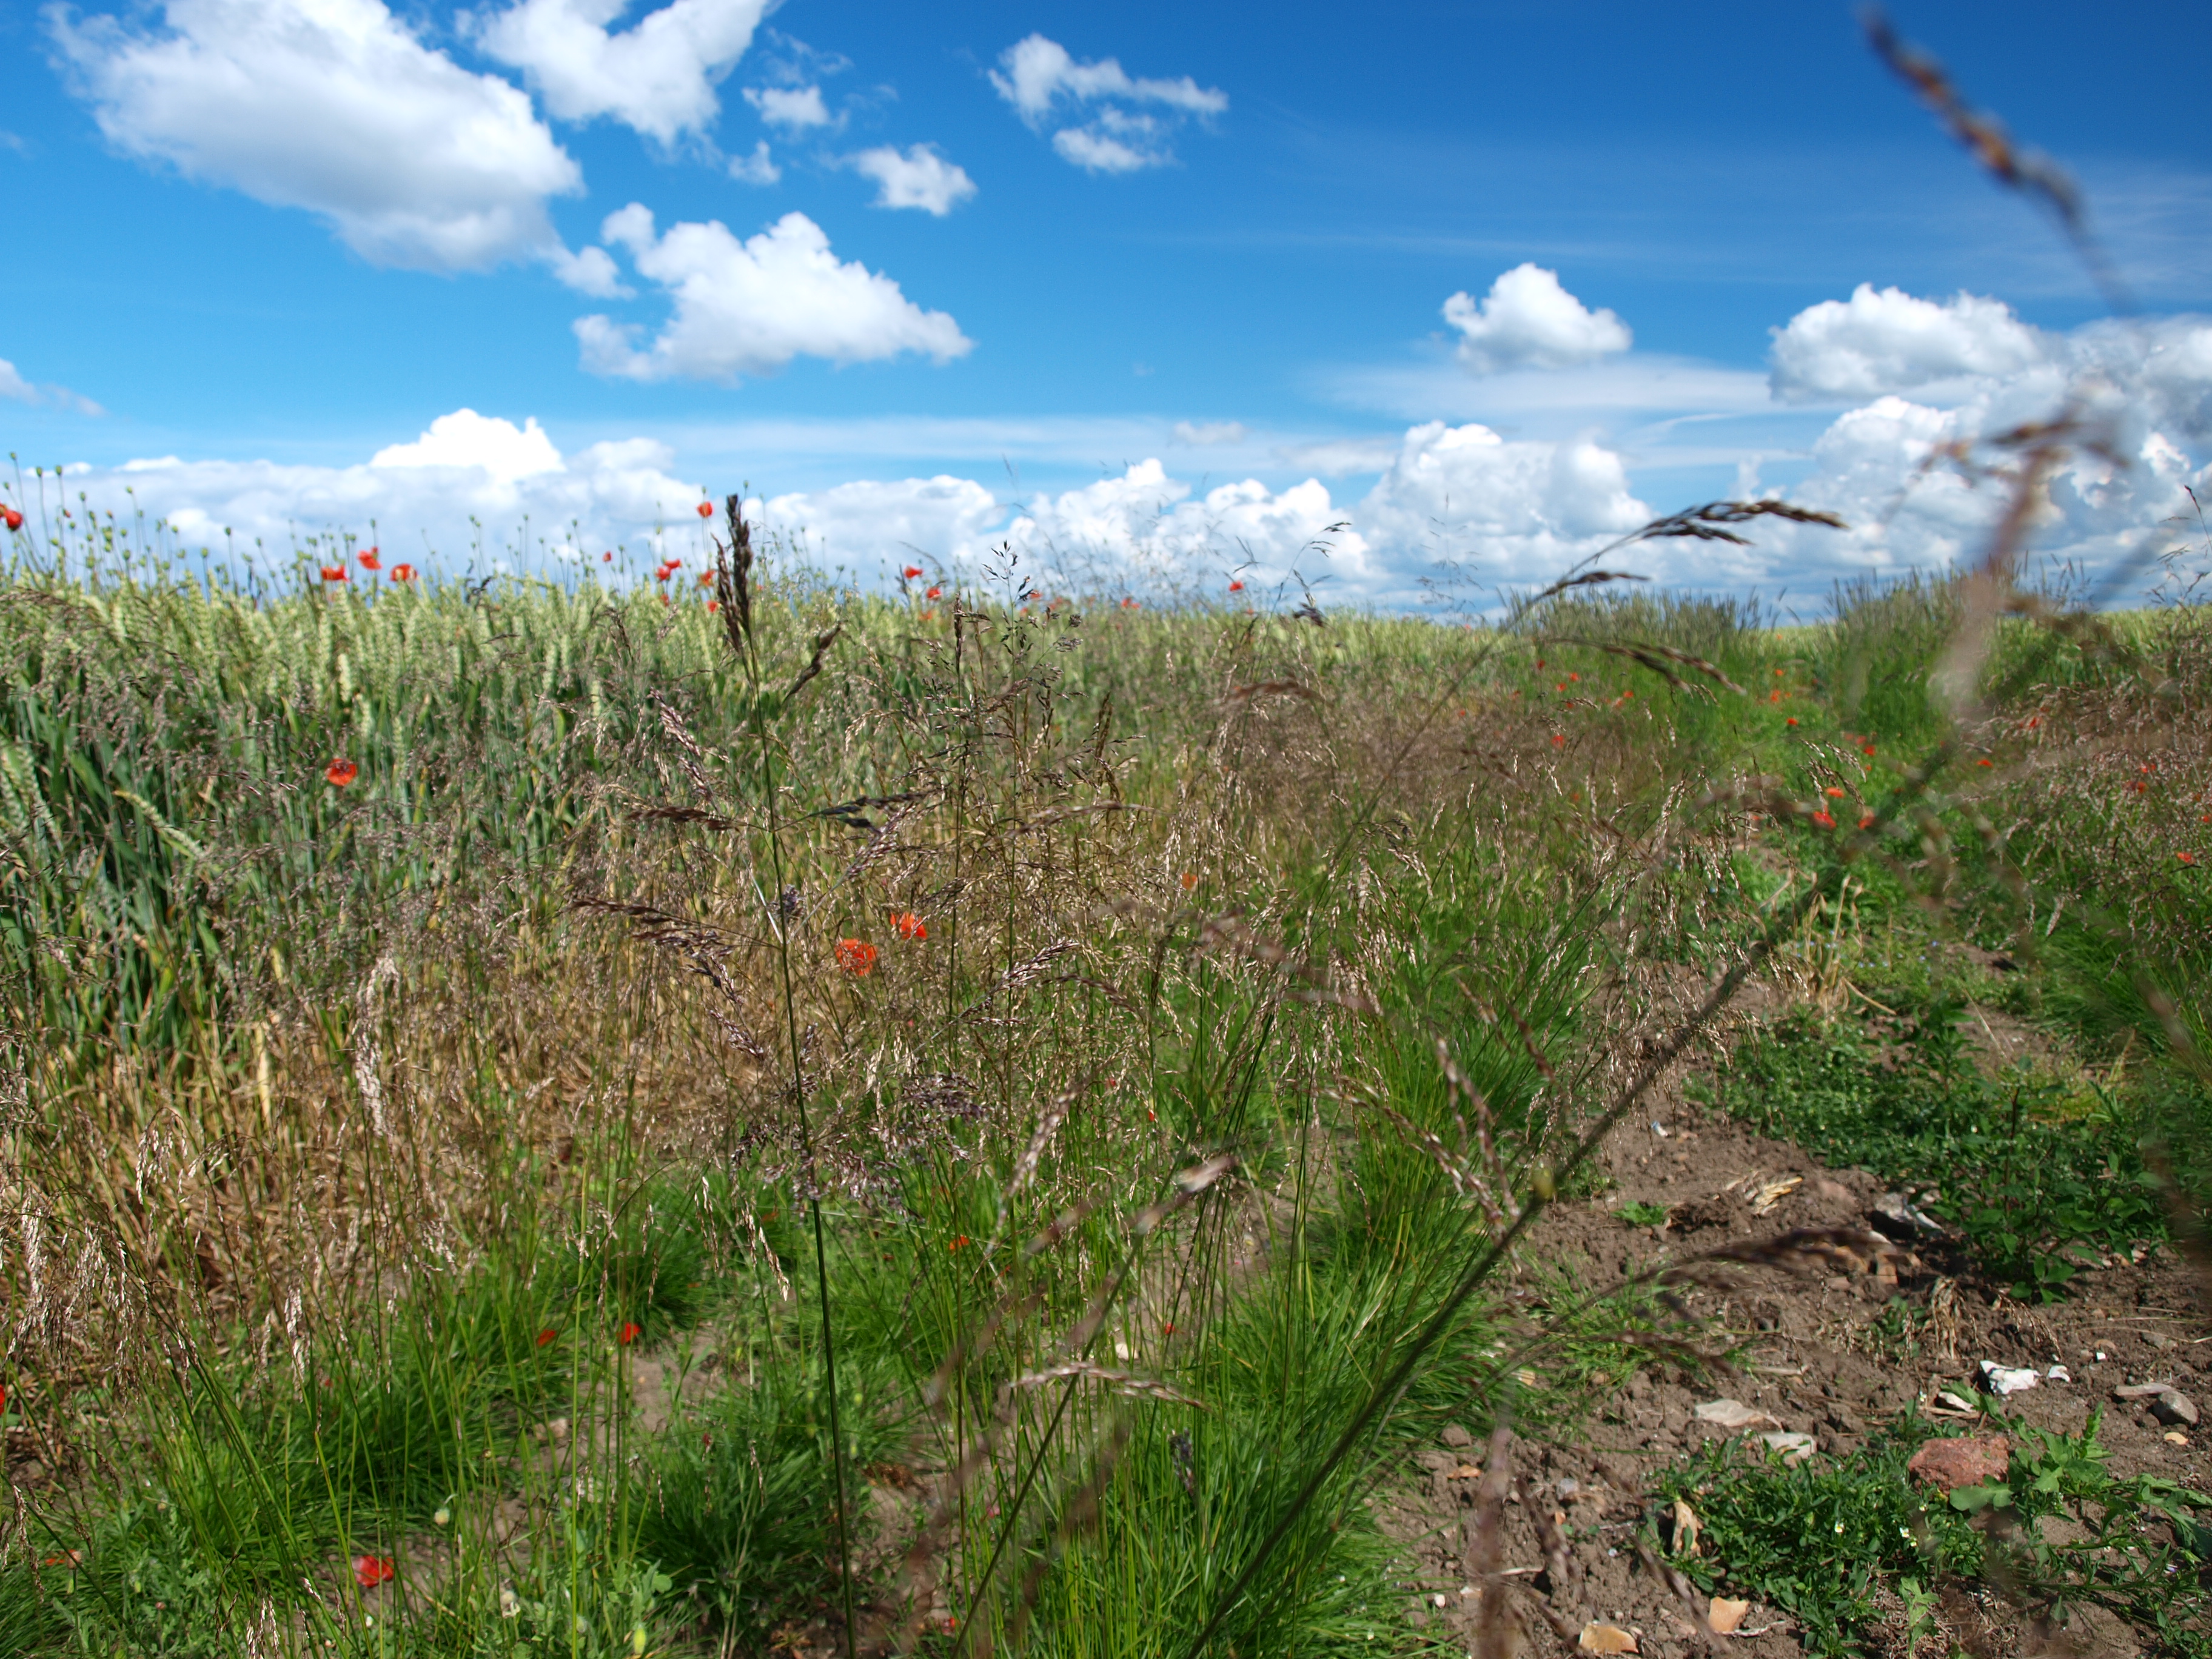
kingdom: Plantae
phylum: Tracheophyta
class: Liliopsida
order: Poales
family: Poaceae
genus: Deschampsia
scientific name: Deschampsia cespitosa
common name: Tufted hair-grass
